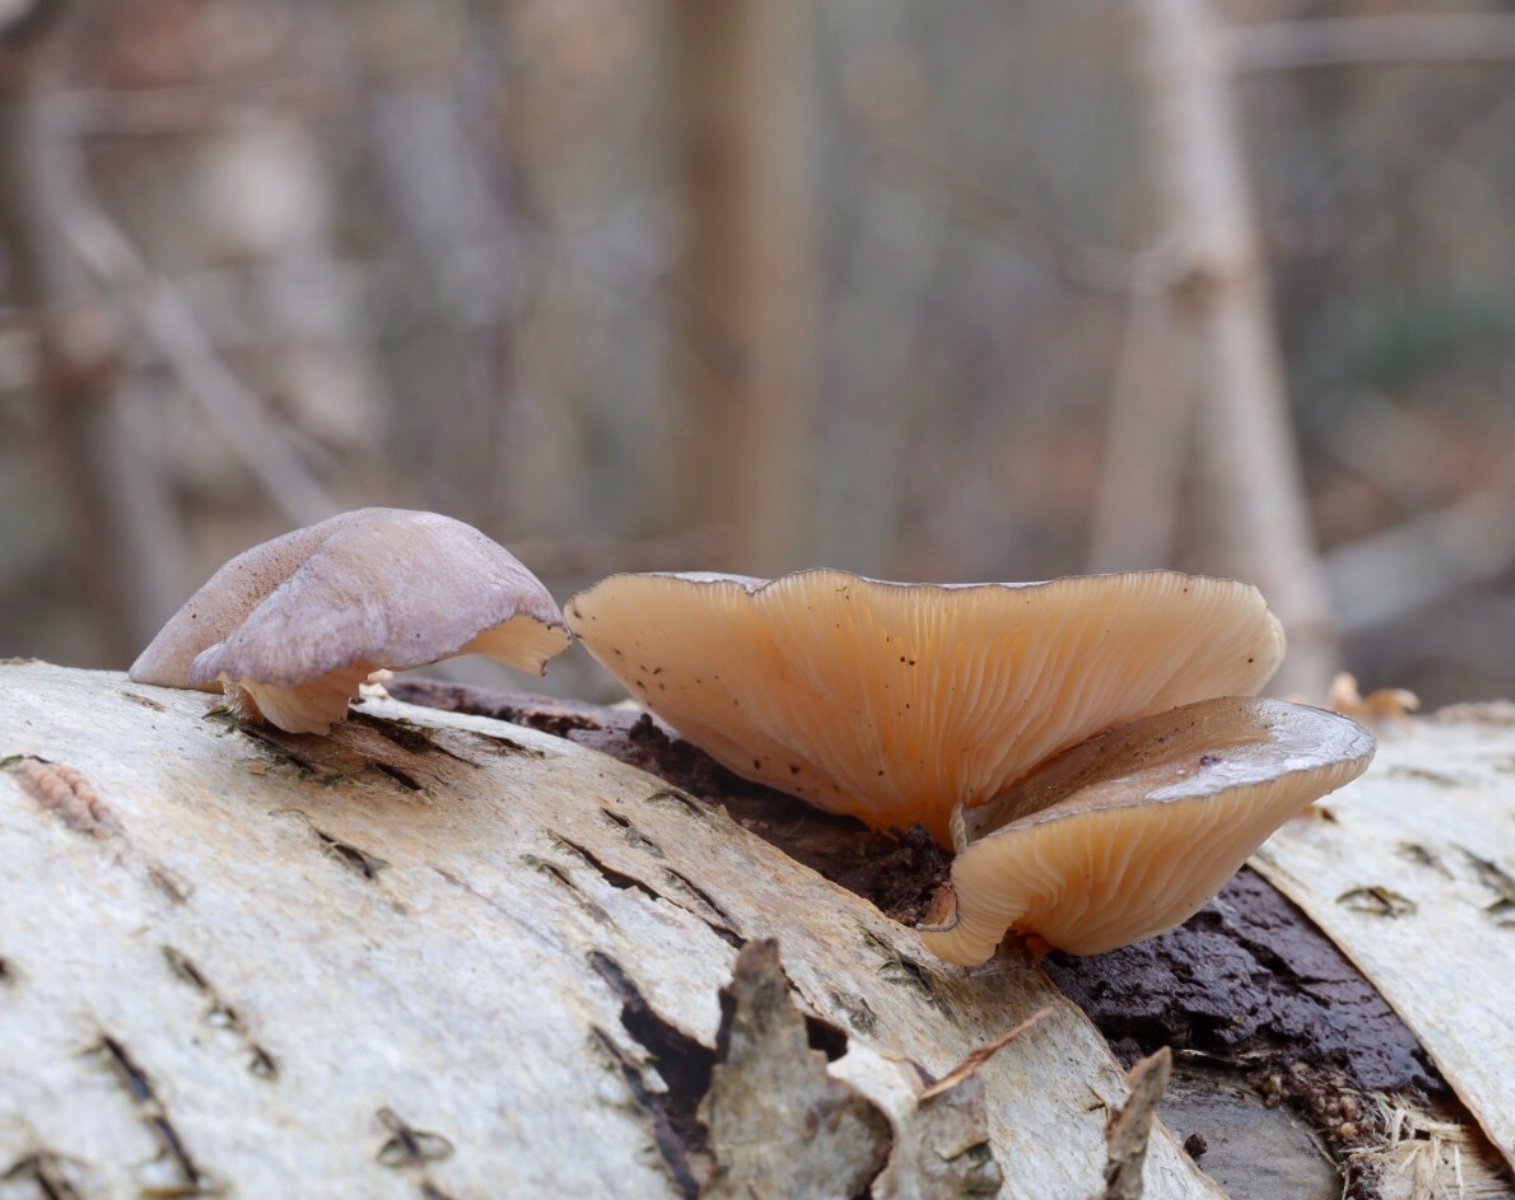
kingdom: Fungi
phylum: Basidiomycota
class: Agaricomycetes
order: Agaricales
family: Sarcomyxaceae
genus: Sarcomyxa
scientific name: Sarcomyxa serotina
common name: gummihat
